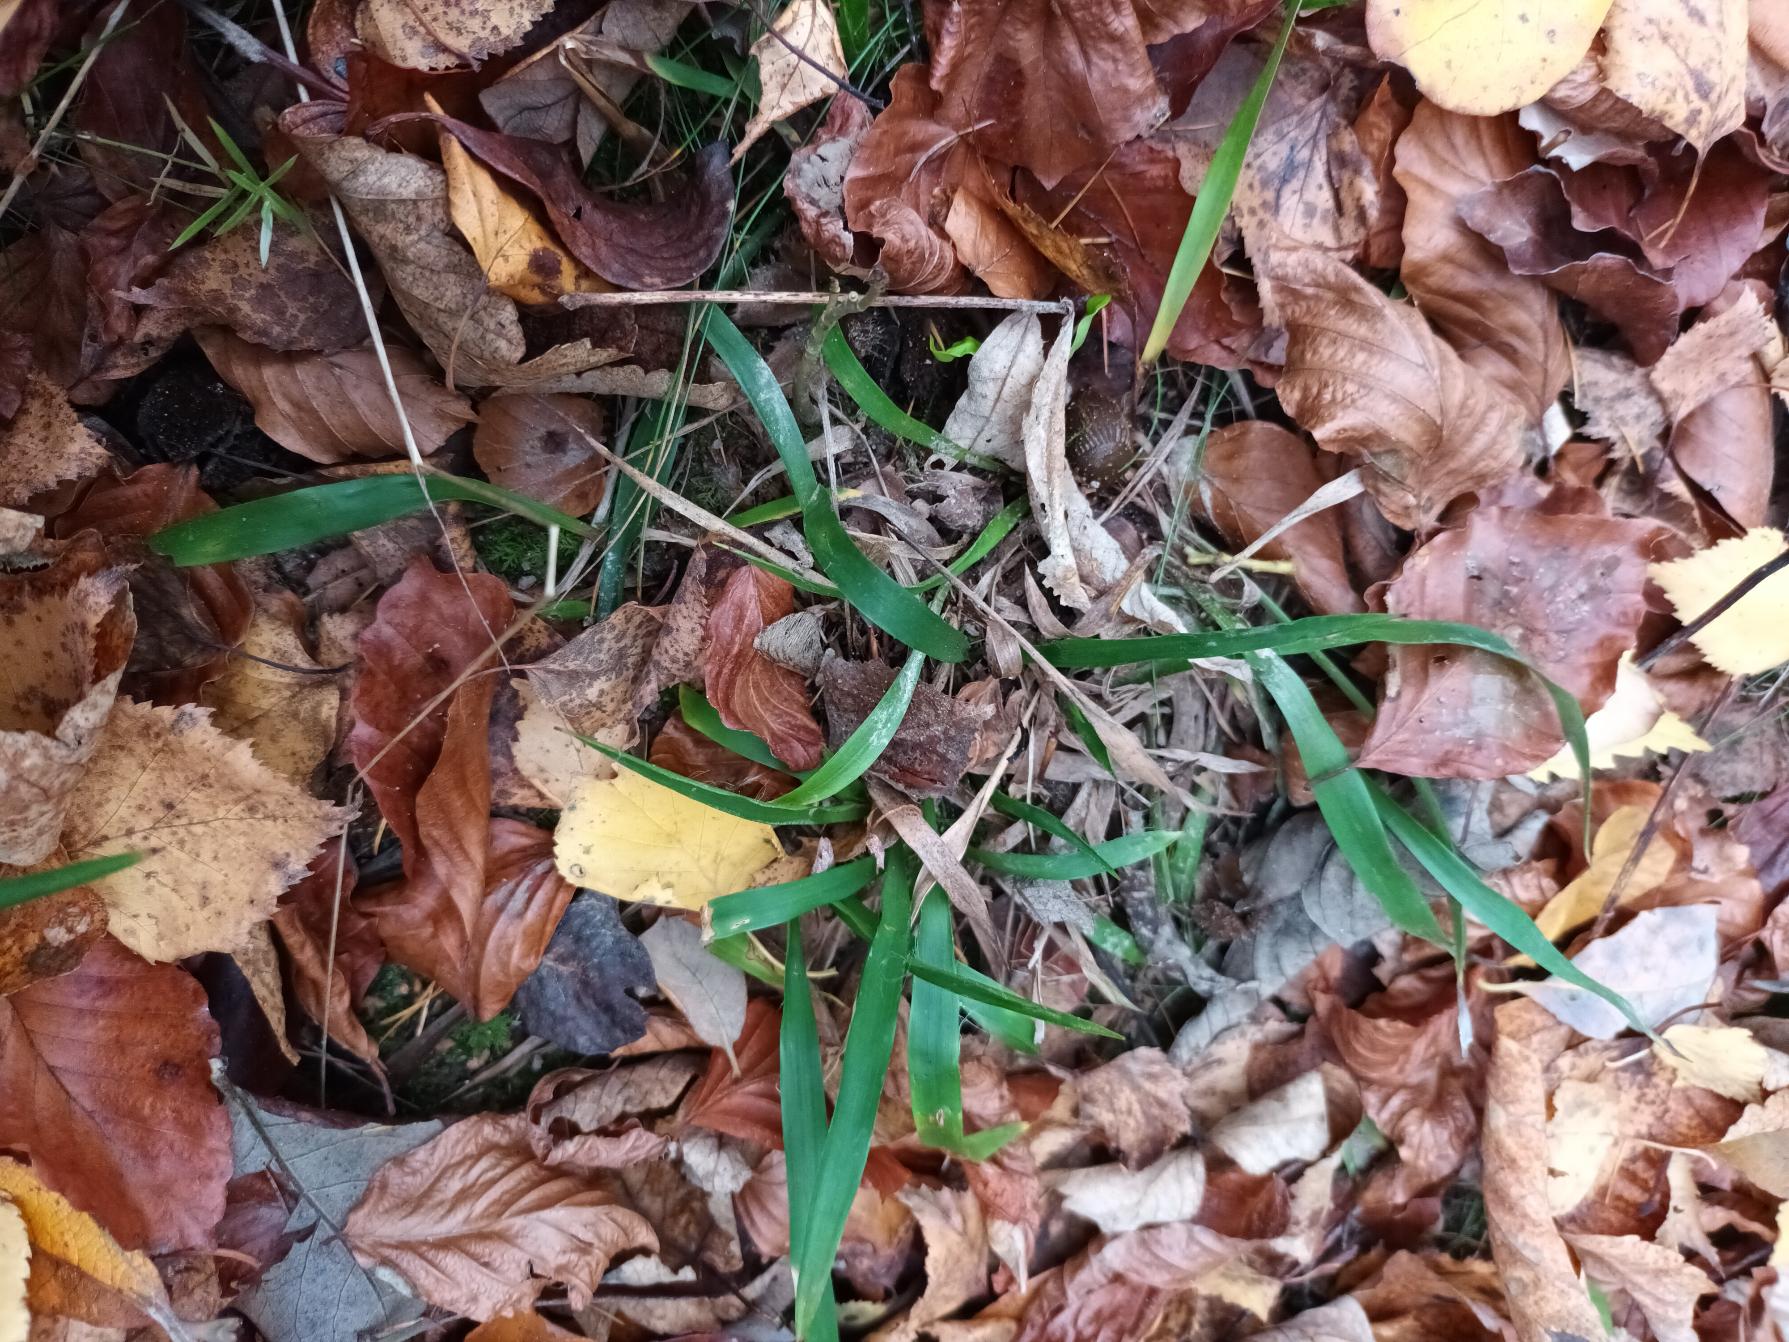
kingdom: Plantae
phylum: Tracheophyta
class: Liliopsida
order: Poales
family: Juncaceae
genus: Luzula
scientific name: Luzula pilosa
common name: Håret frytle
